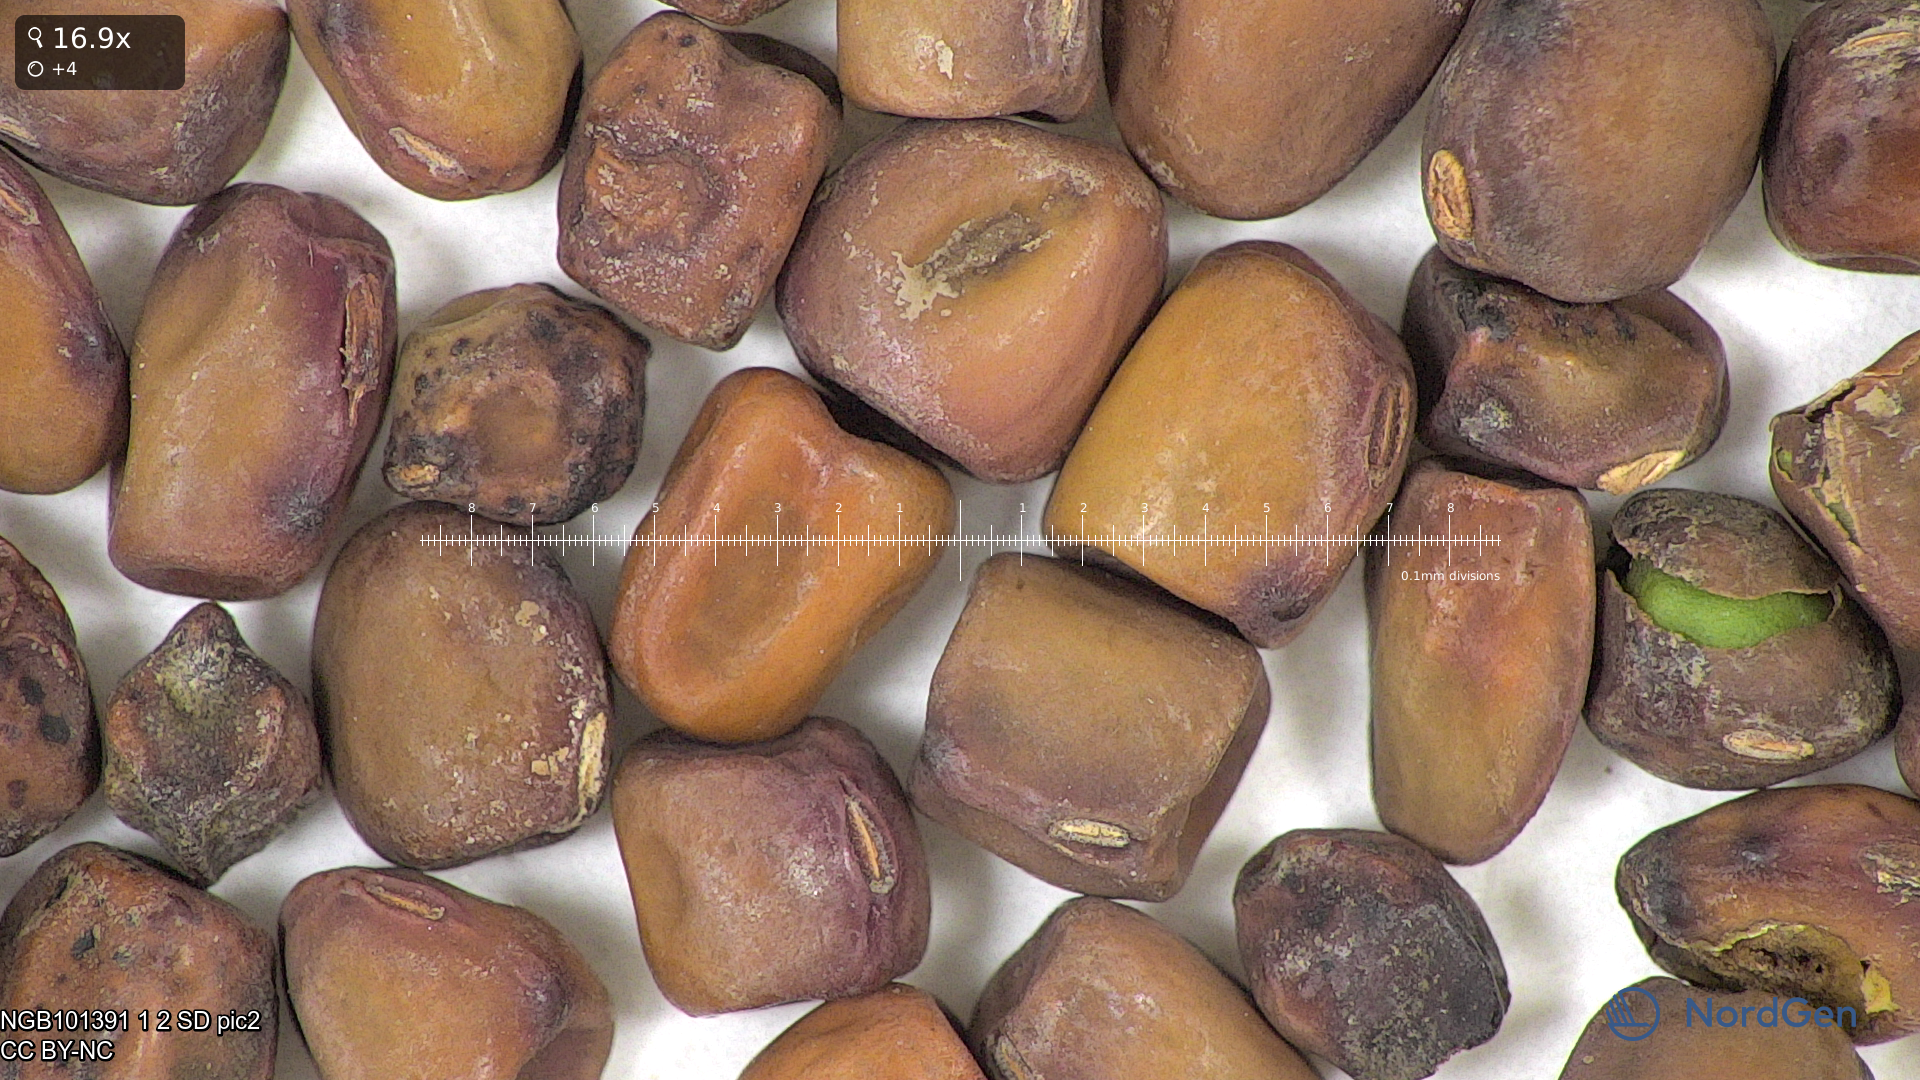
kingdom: Plantae
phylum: Tracheophyta
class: Magnoliopsida
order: Fabales
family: Fabaceae
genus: Lathyrus
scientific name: Lathyrus oleraceus
